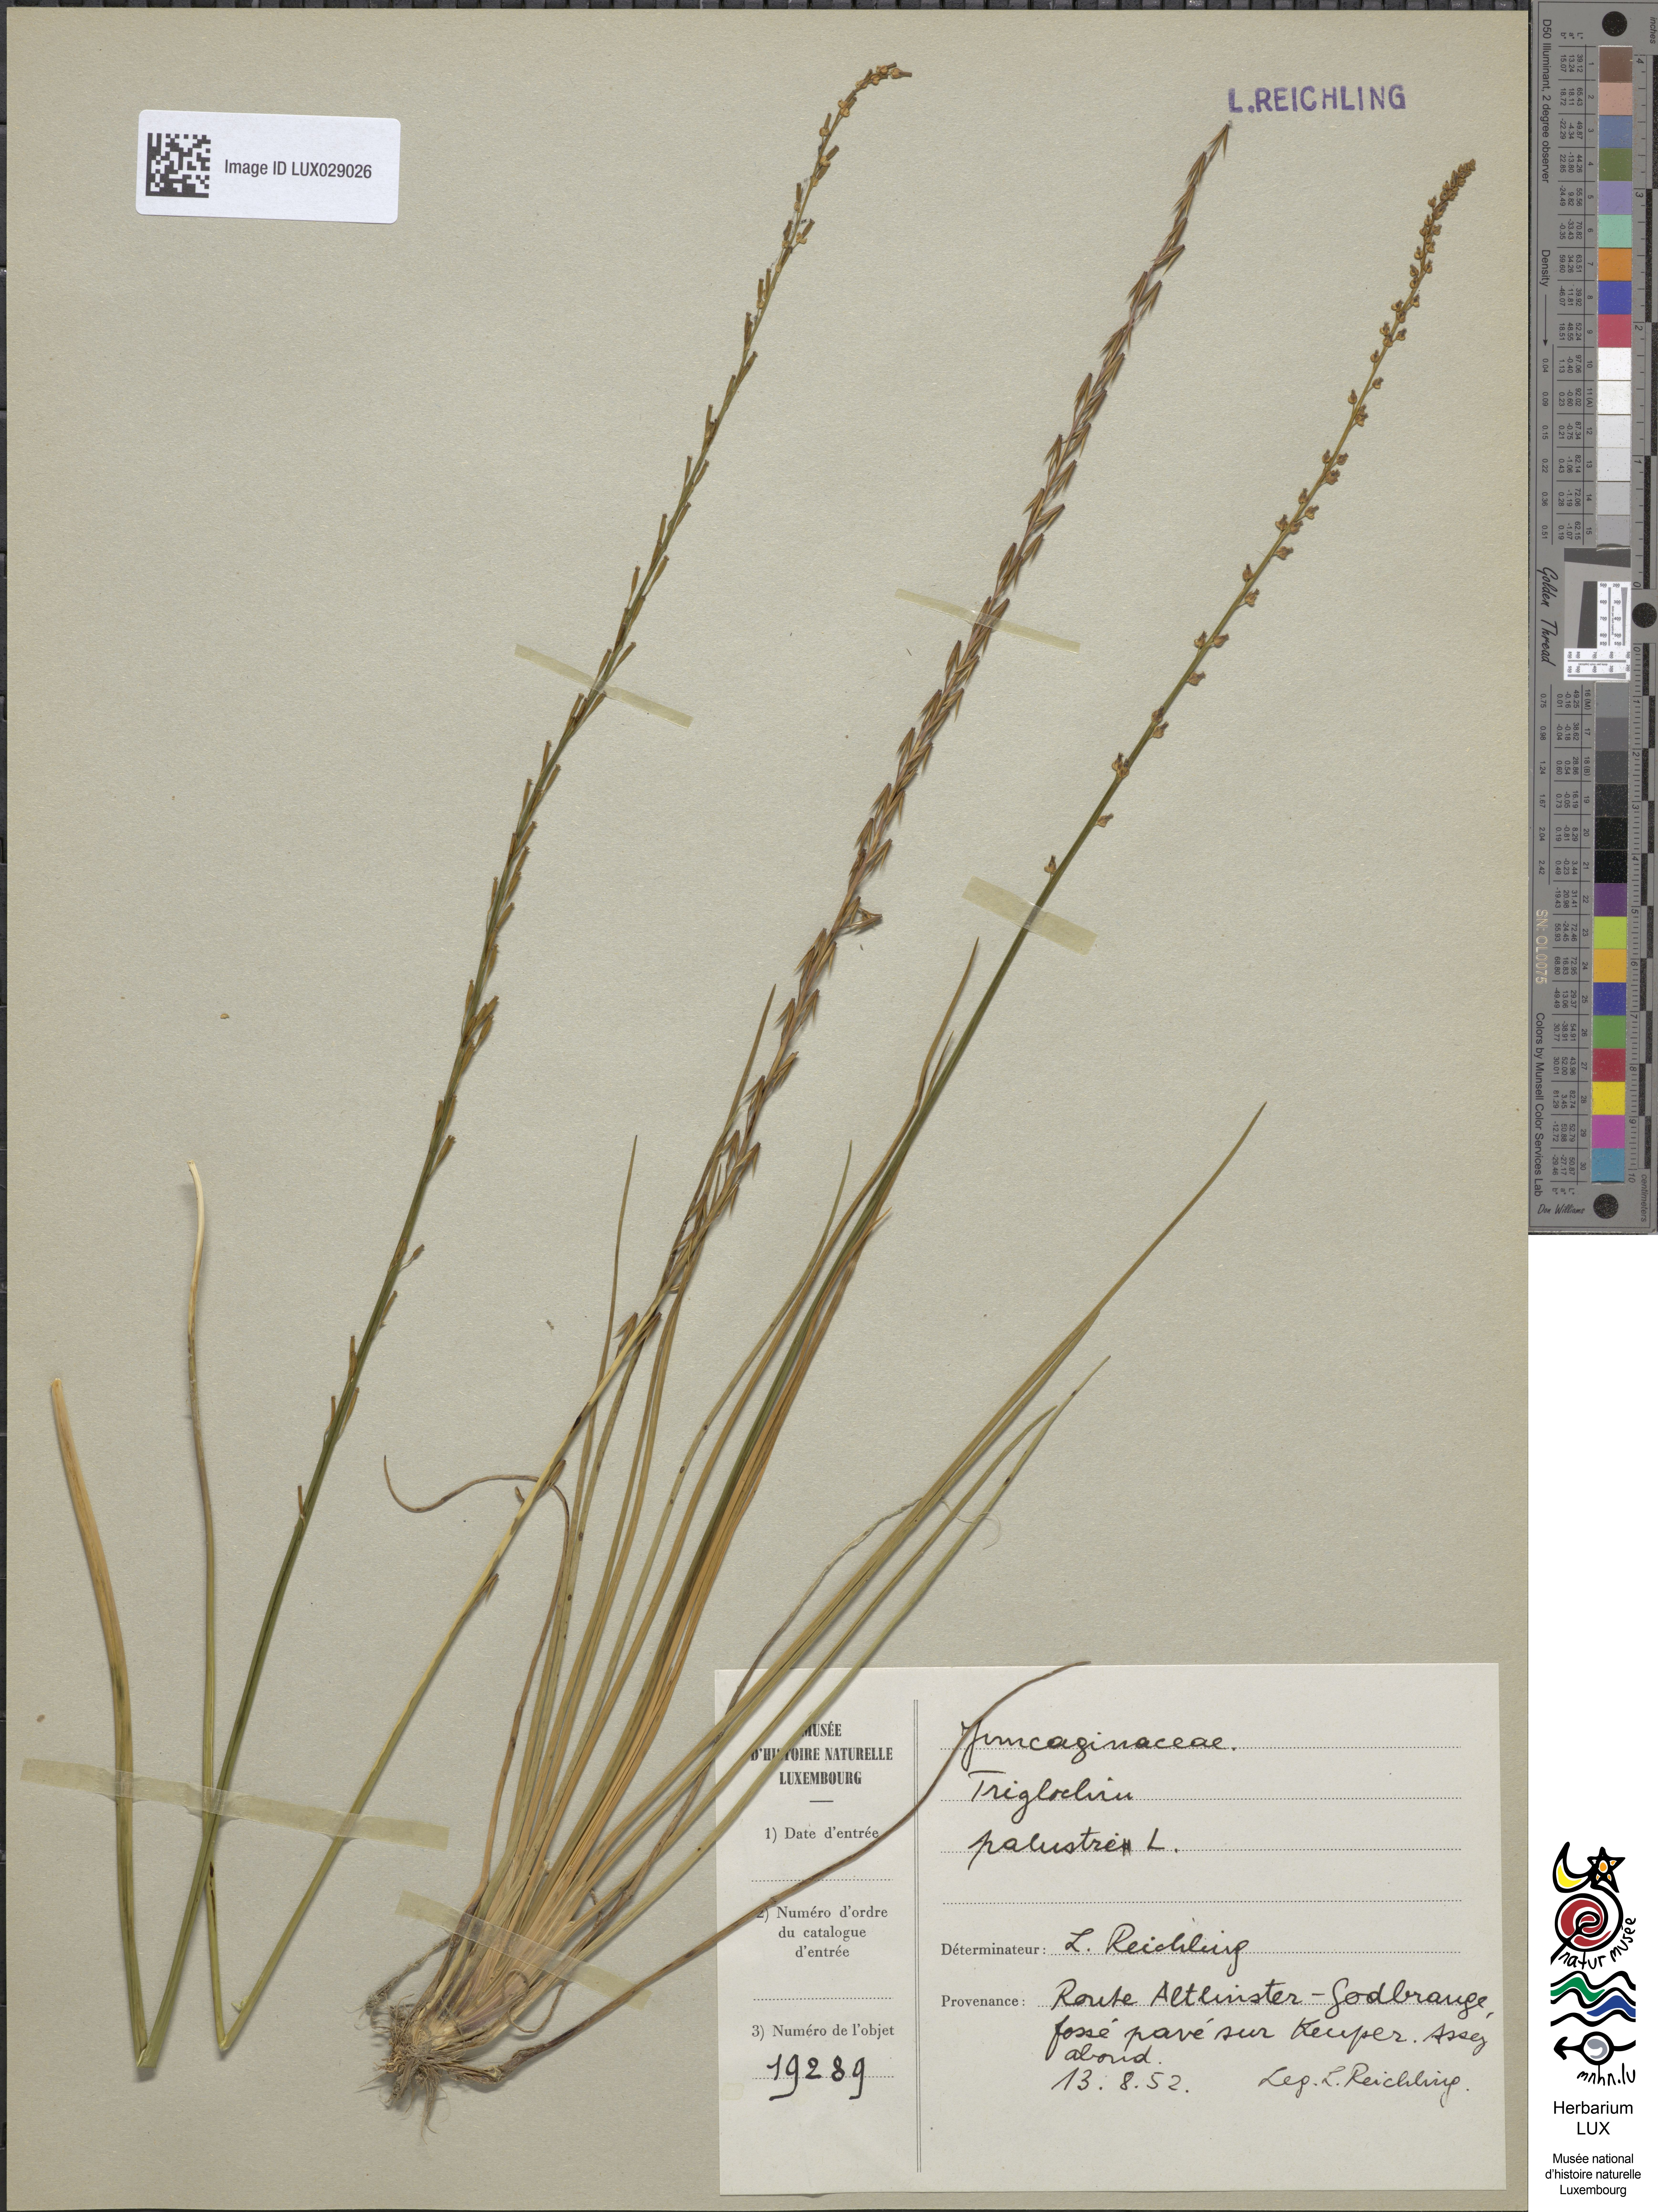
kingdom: Plantae
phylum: Tracheophyta
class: Liliopsida
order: Alismatales
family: Juncaginaceae
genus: Triglochin
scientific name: Triglochin palustris
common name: Marsh arrowgrass
